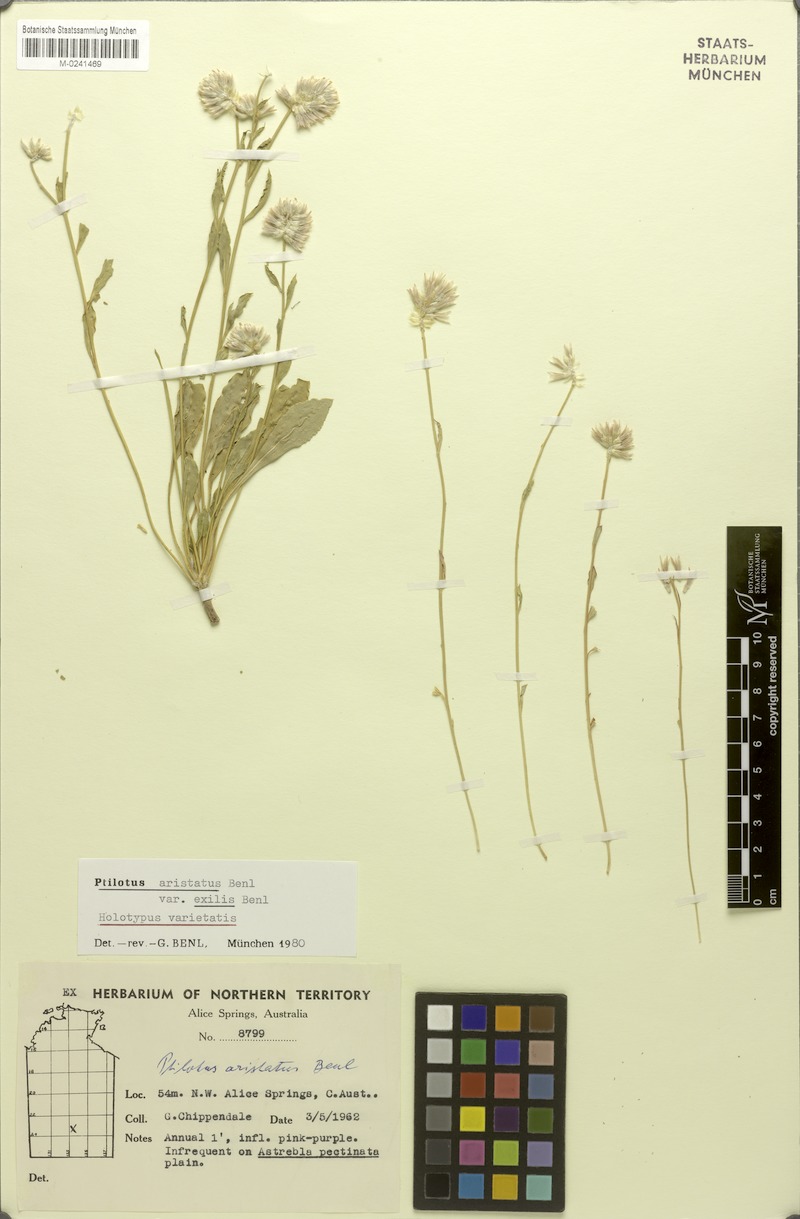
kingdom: Plantae
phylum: Tracheophyta
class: Magnoliopsida
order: Caryophyllales
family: Amaranthaceae
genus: Ptilotus
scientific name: Ptilotus aristatus
